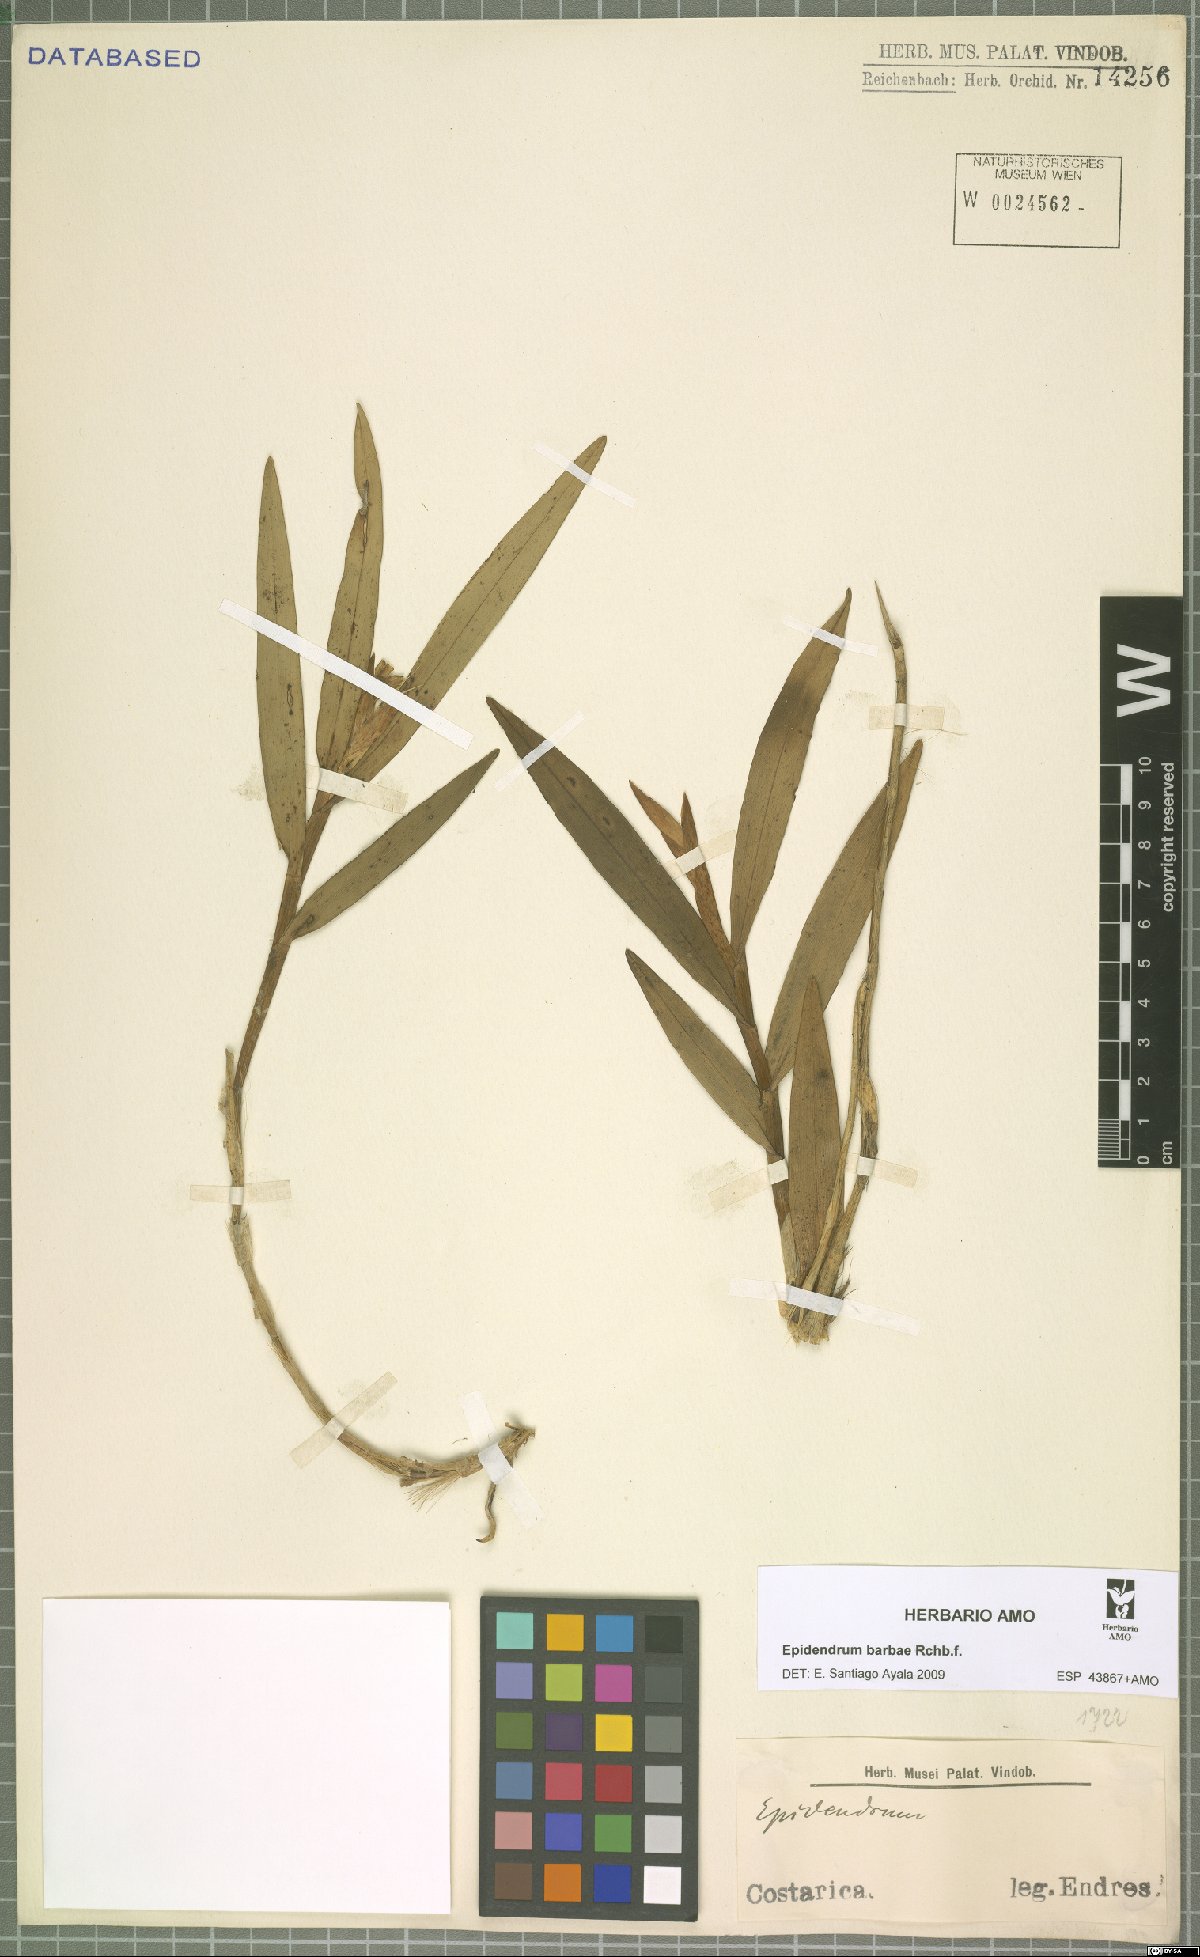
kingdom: Plantae
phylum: Tracheophyta
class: Liliopsida
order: Asparagales
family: Orchidaceae
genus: Epidendrum
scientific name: Epidendrum barbae
